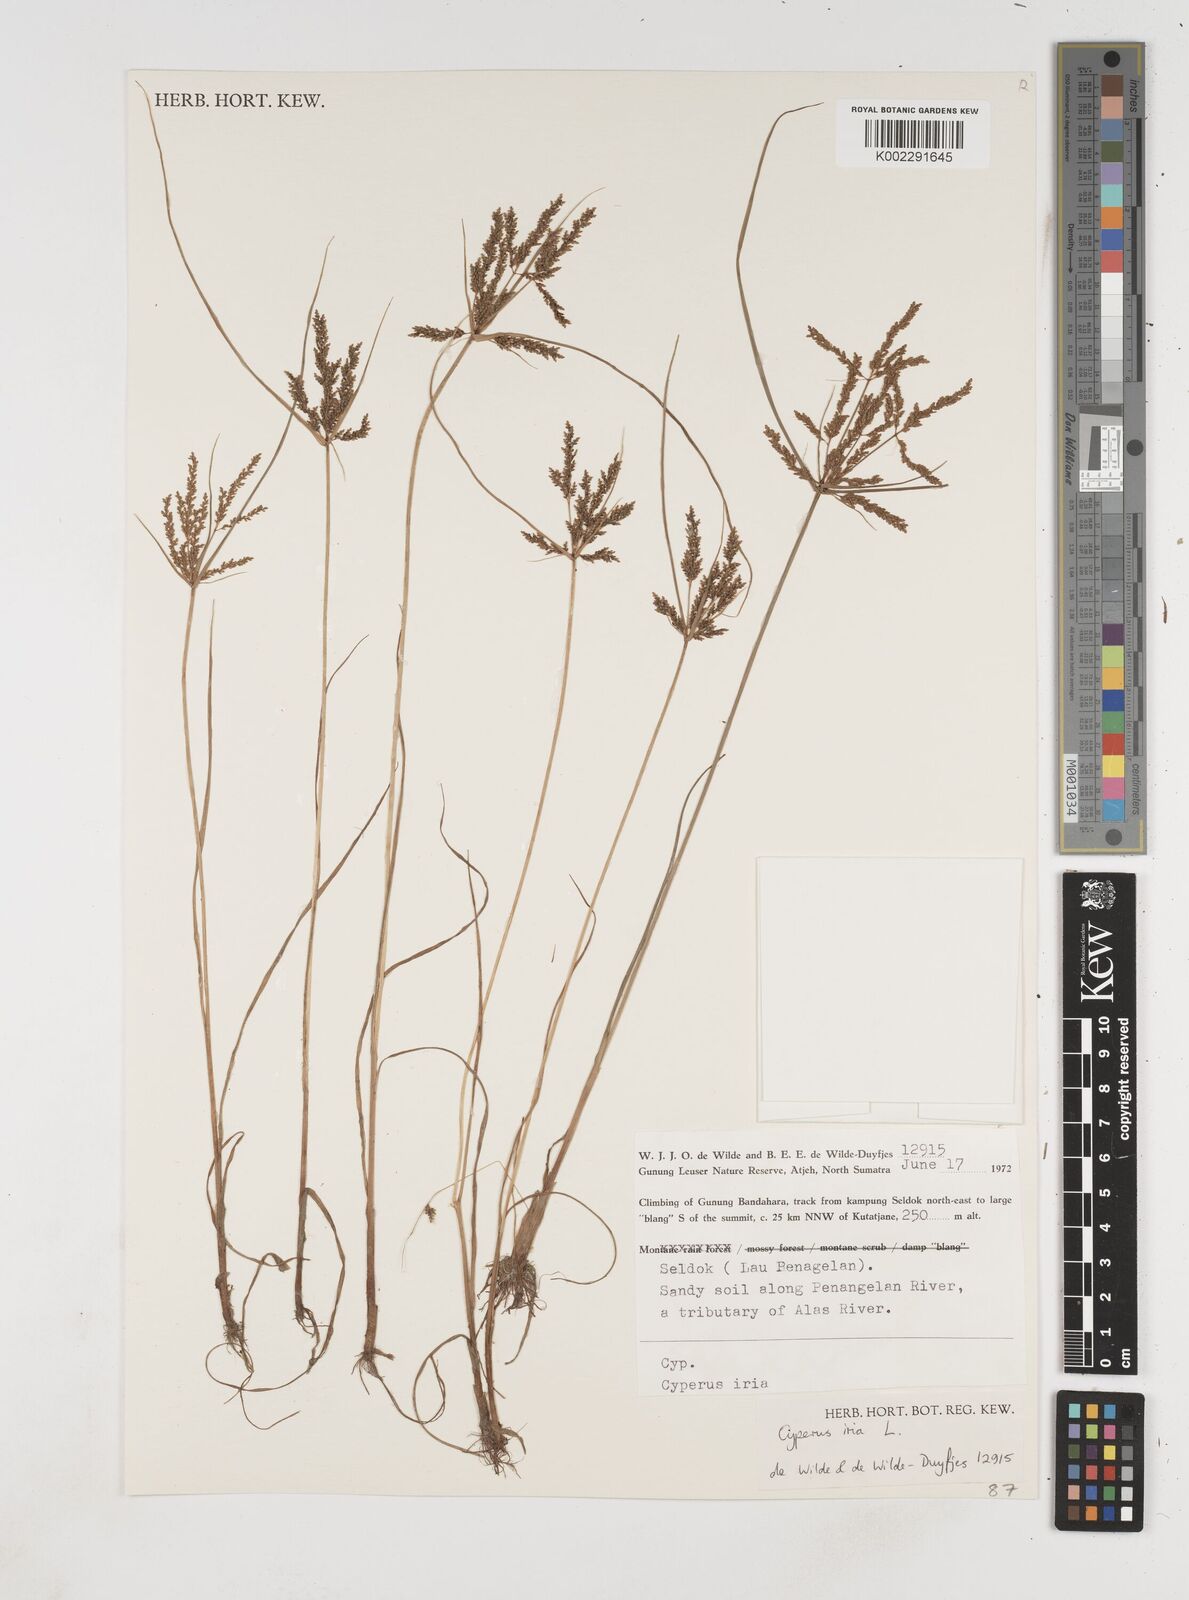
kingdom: Plantae
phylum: Tracheophyta
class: Liliopsida
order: Poales
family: Cyperaceae
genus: Cyperus
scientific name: Cyperus iria
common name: Ricefield flatsedge
